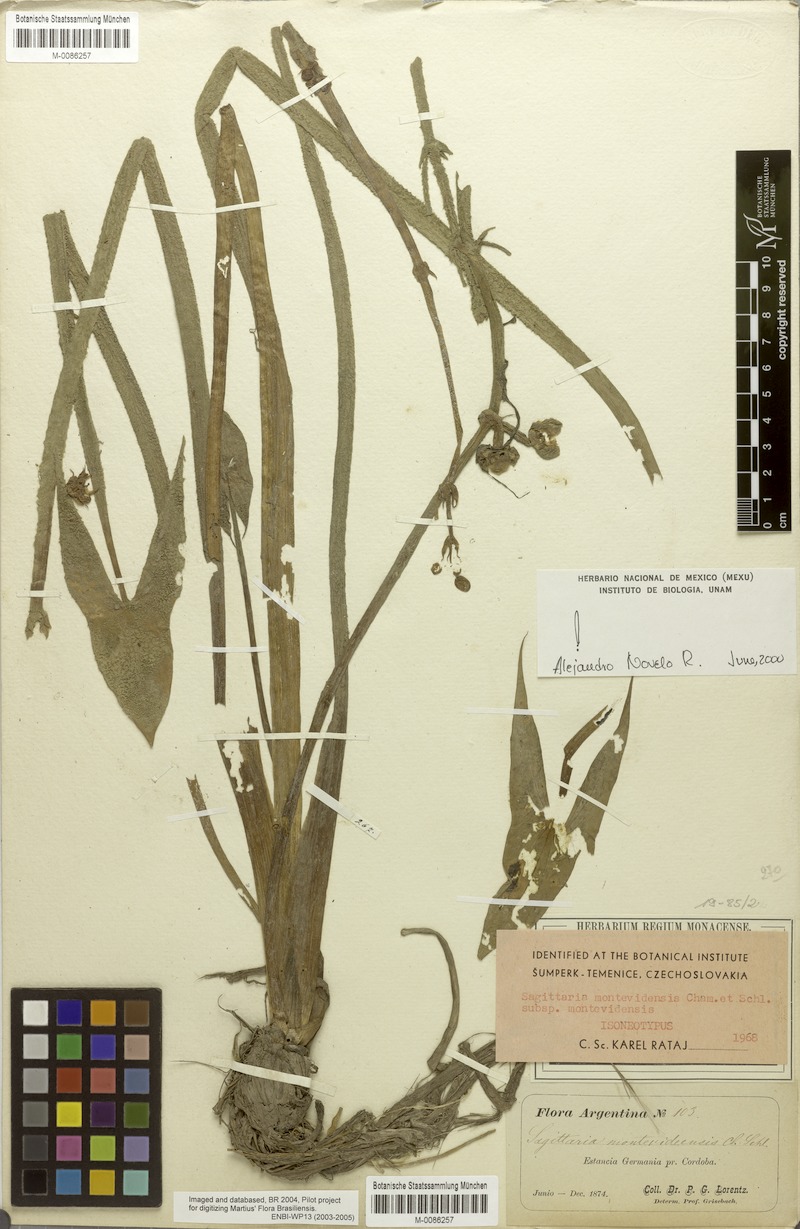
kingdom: Plantae
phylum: Tracheophyta
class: Liliopsida
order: Alismatales
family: Alismataceae
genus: Sagittaria
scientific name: Sagittaria montevidensis
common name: Giant arrowhead
